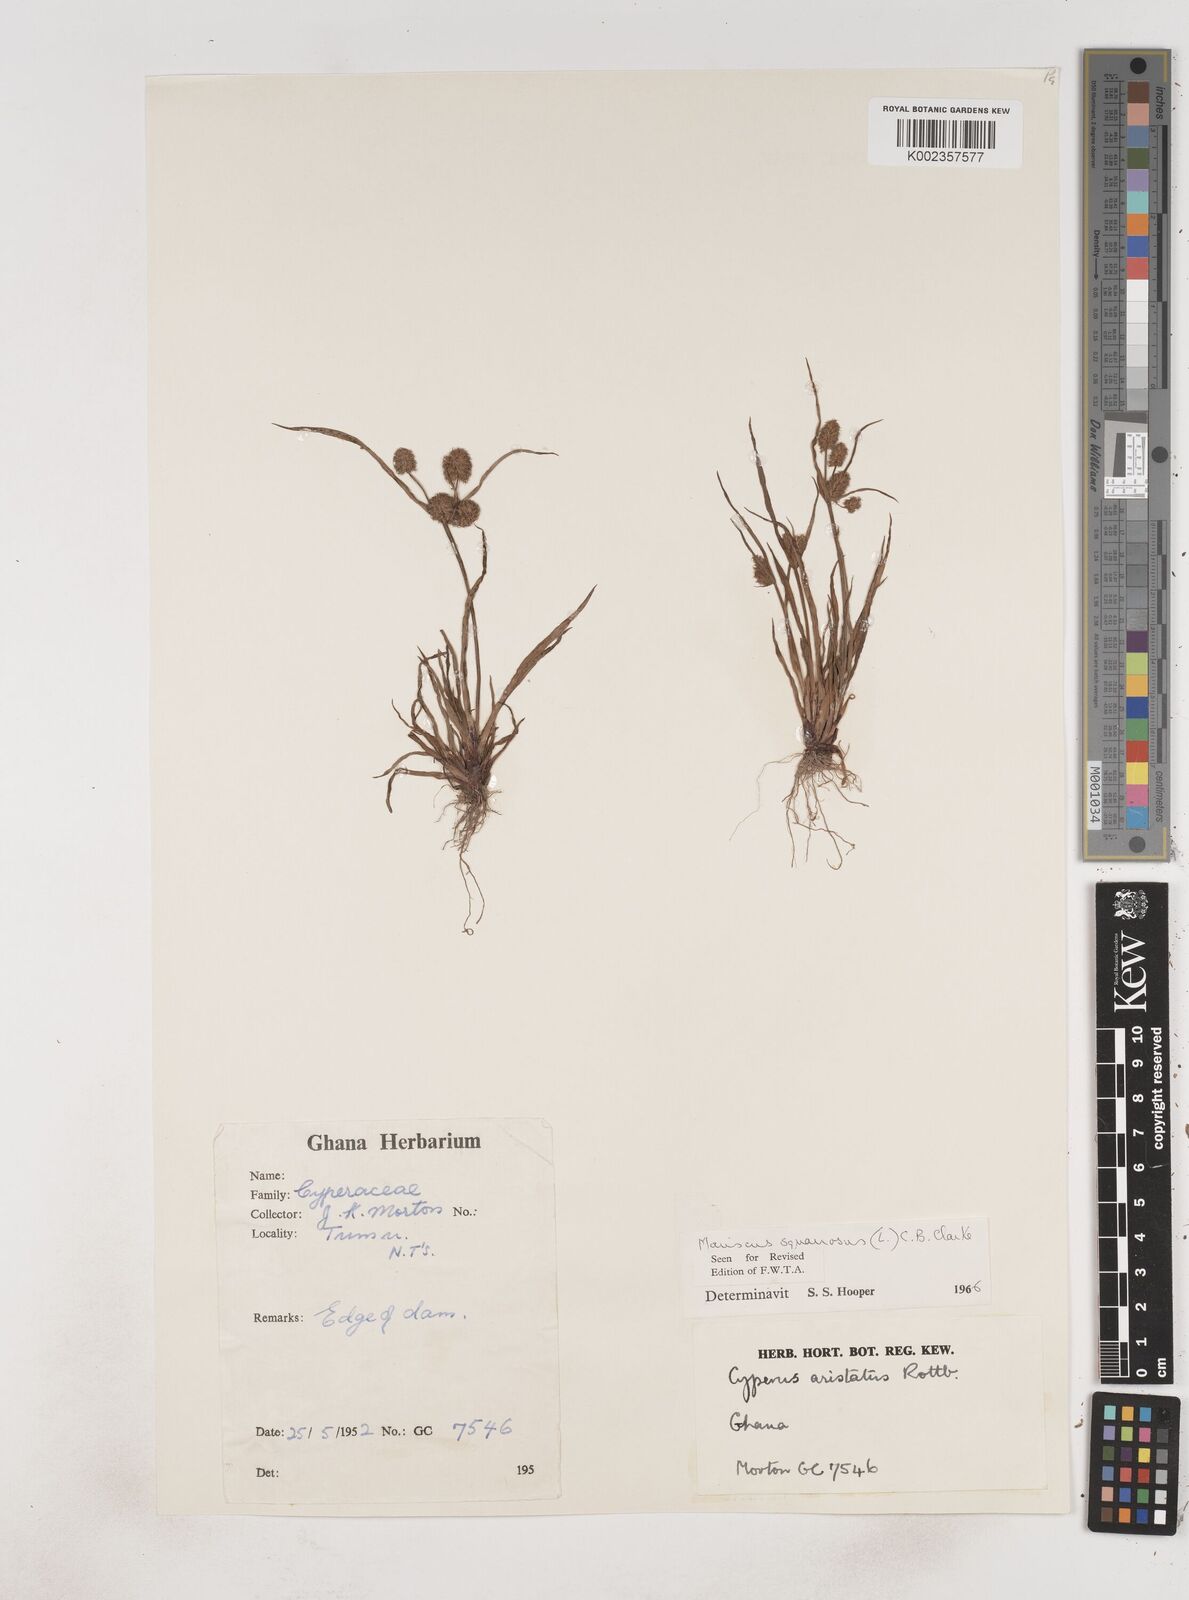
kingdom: Plantae
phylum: Tracheophyta
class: Liliopsida
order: Poales
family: Cyperaceae
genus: Cyperus
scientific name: Cyperus squarrosus
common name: Awned cyperus
